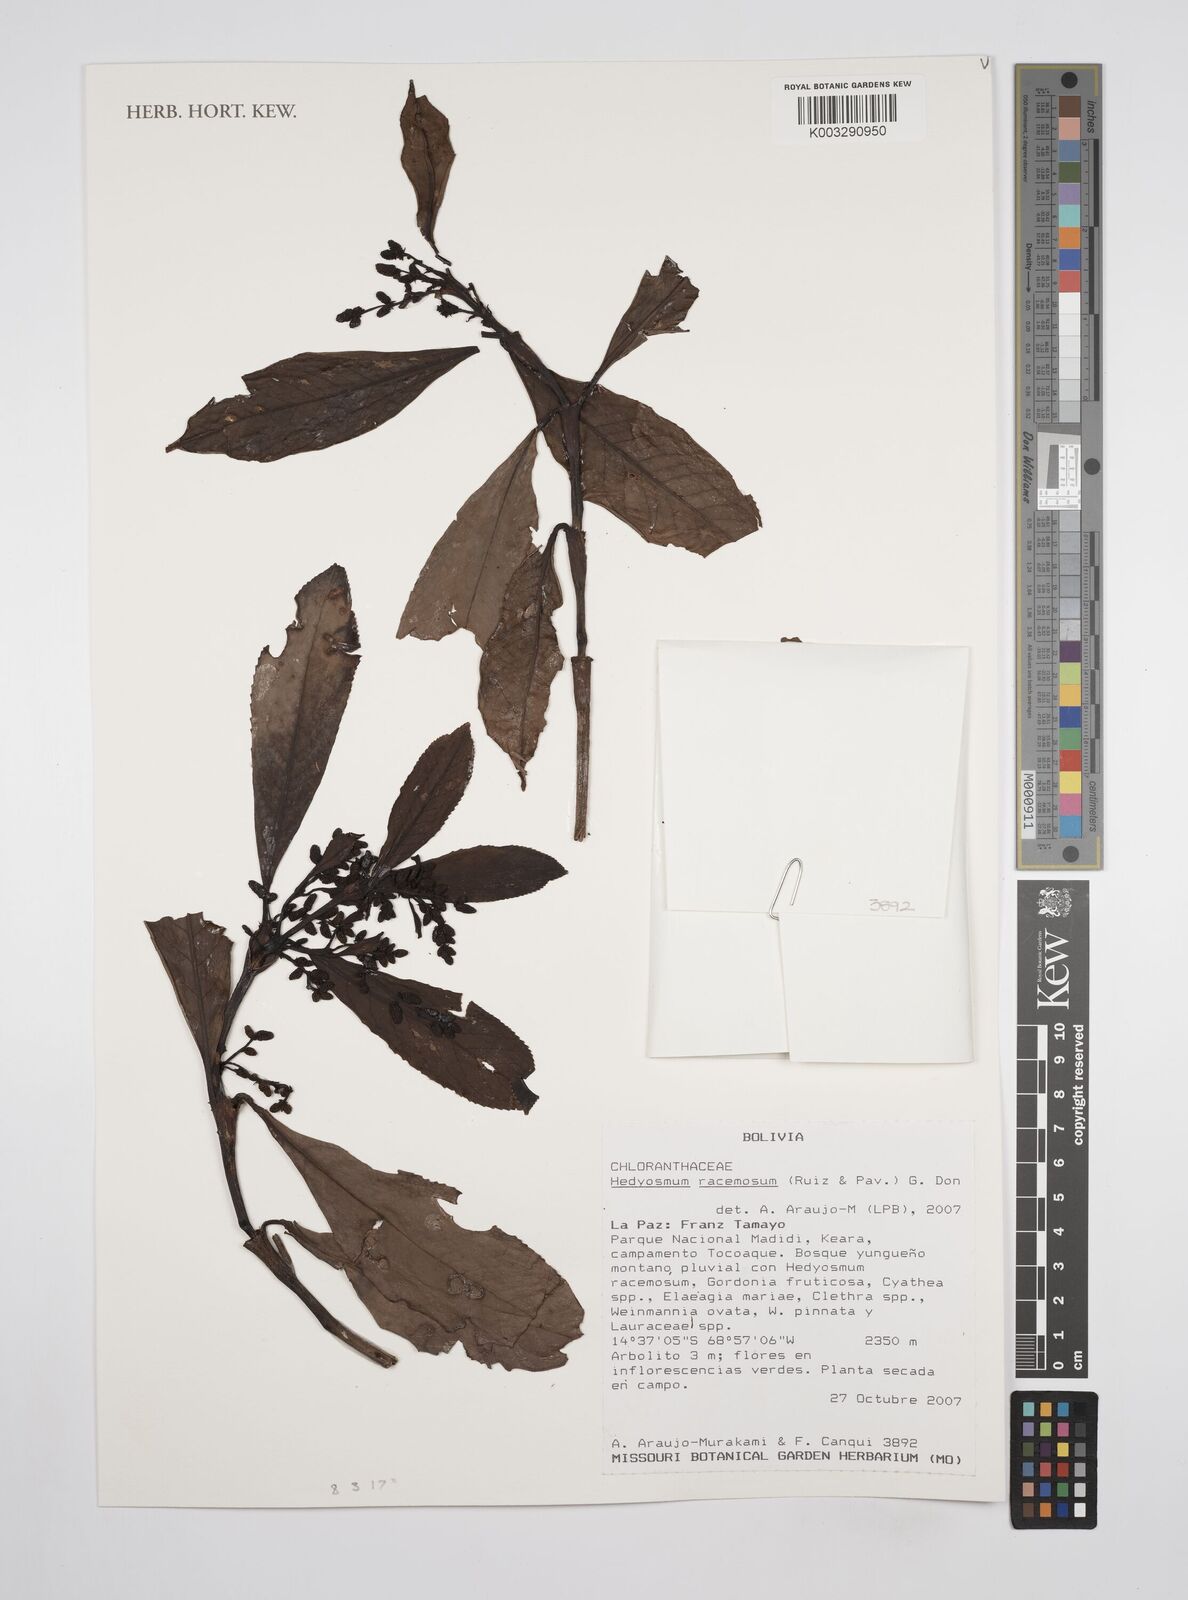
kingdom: Plantae
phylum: Tracheophyta
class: Magnoliopsida
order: Chloranthales
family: Chloranthaceae
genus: Hedyosmum
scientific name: Hedyosmum racemosum
